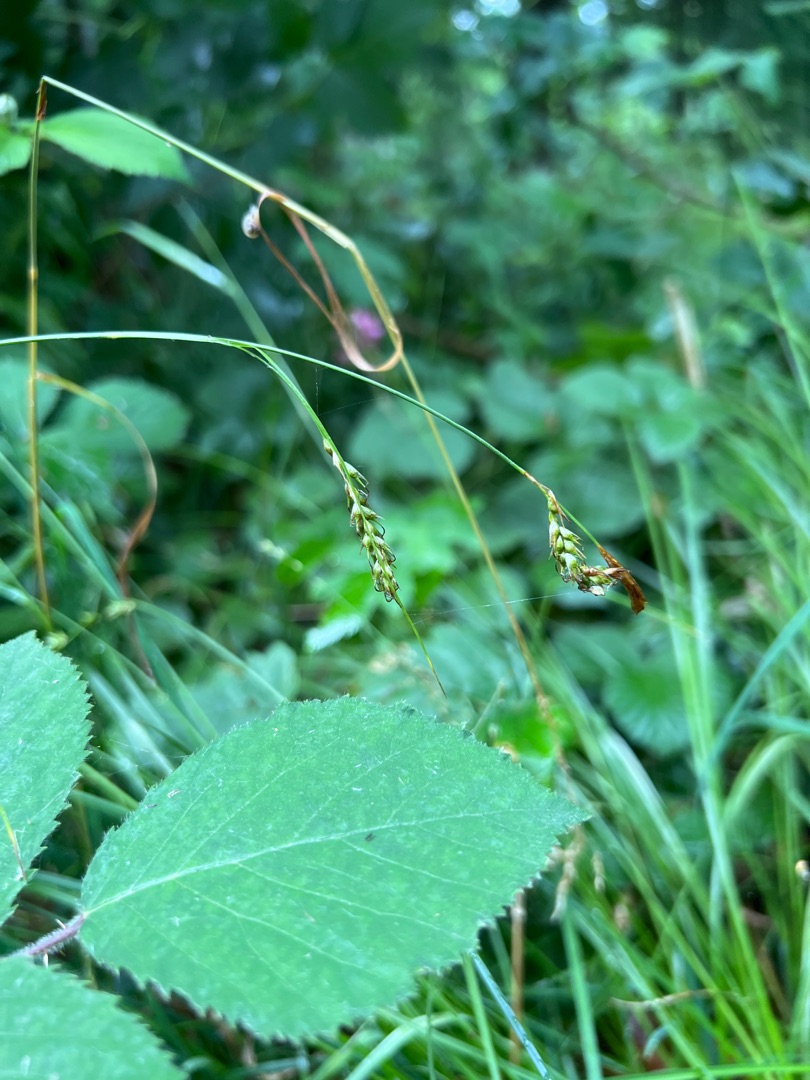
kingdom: Plantae
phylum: Tracheophyta
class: Liliopsida
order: Poales
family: Cyperaceae
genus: Carex
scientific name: Carex sylvatica
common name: Skov-star
